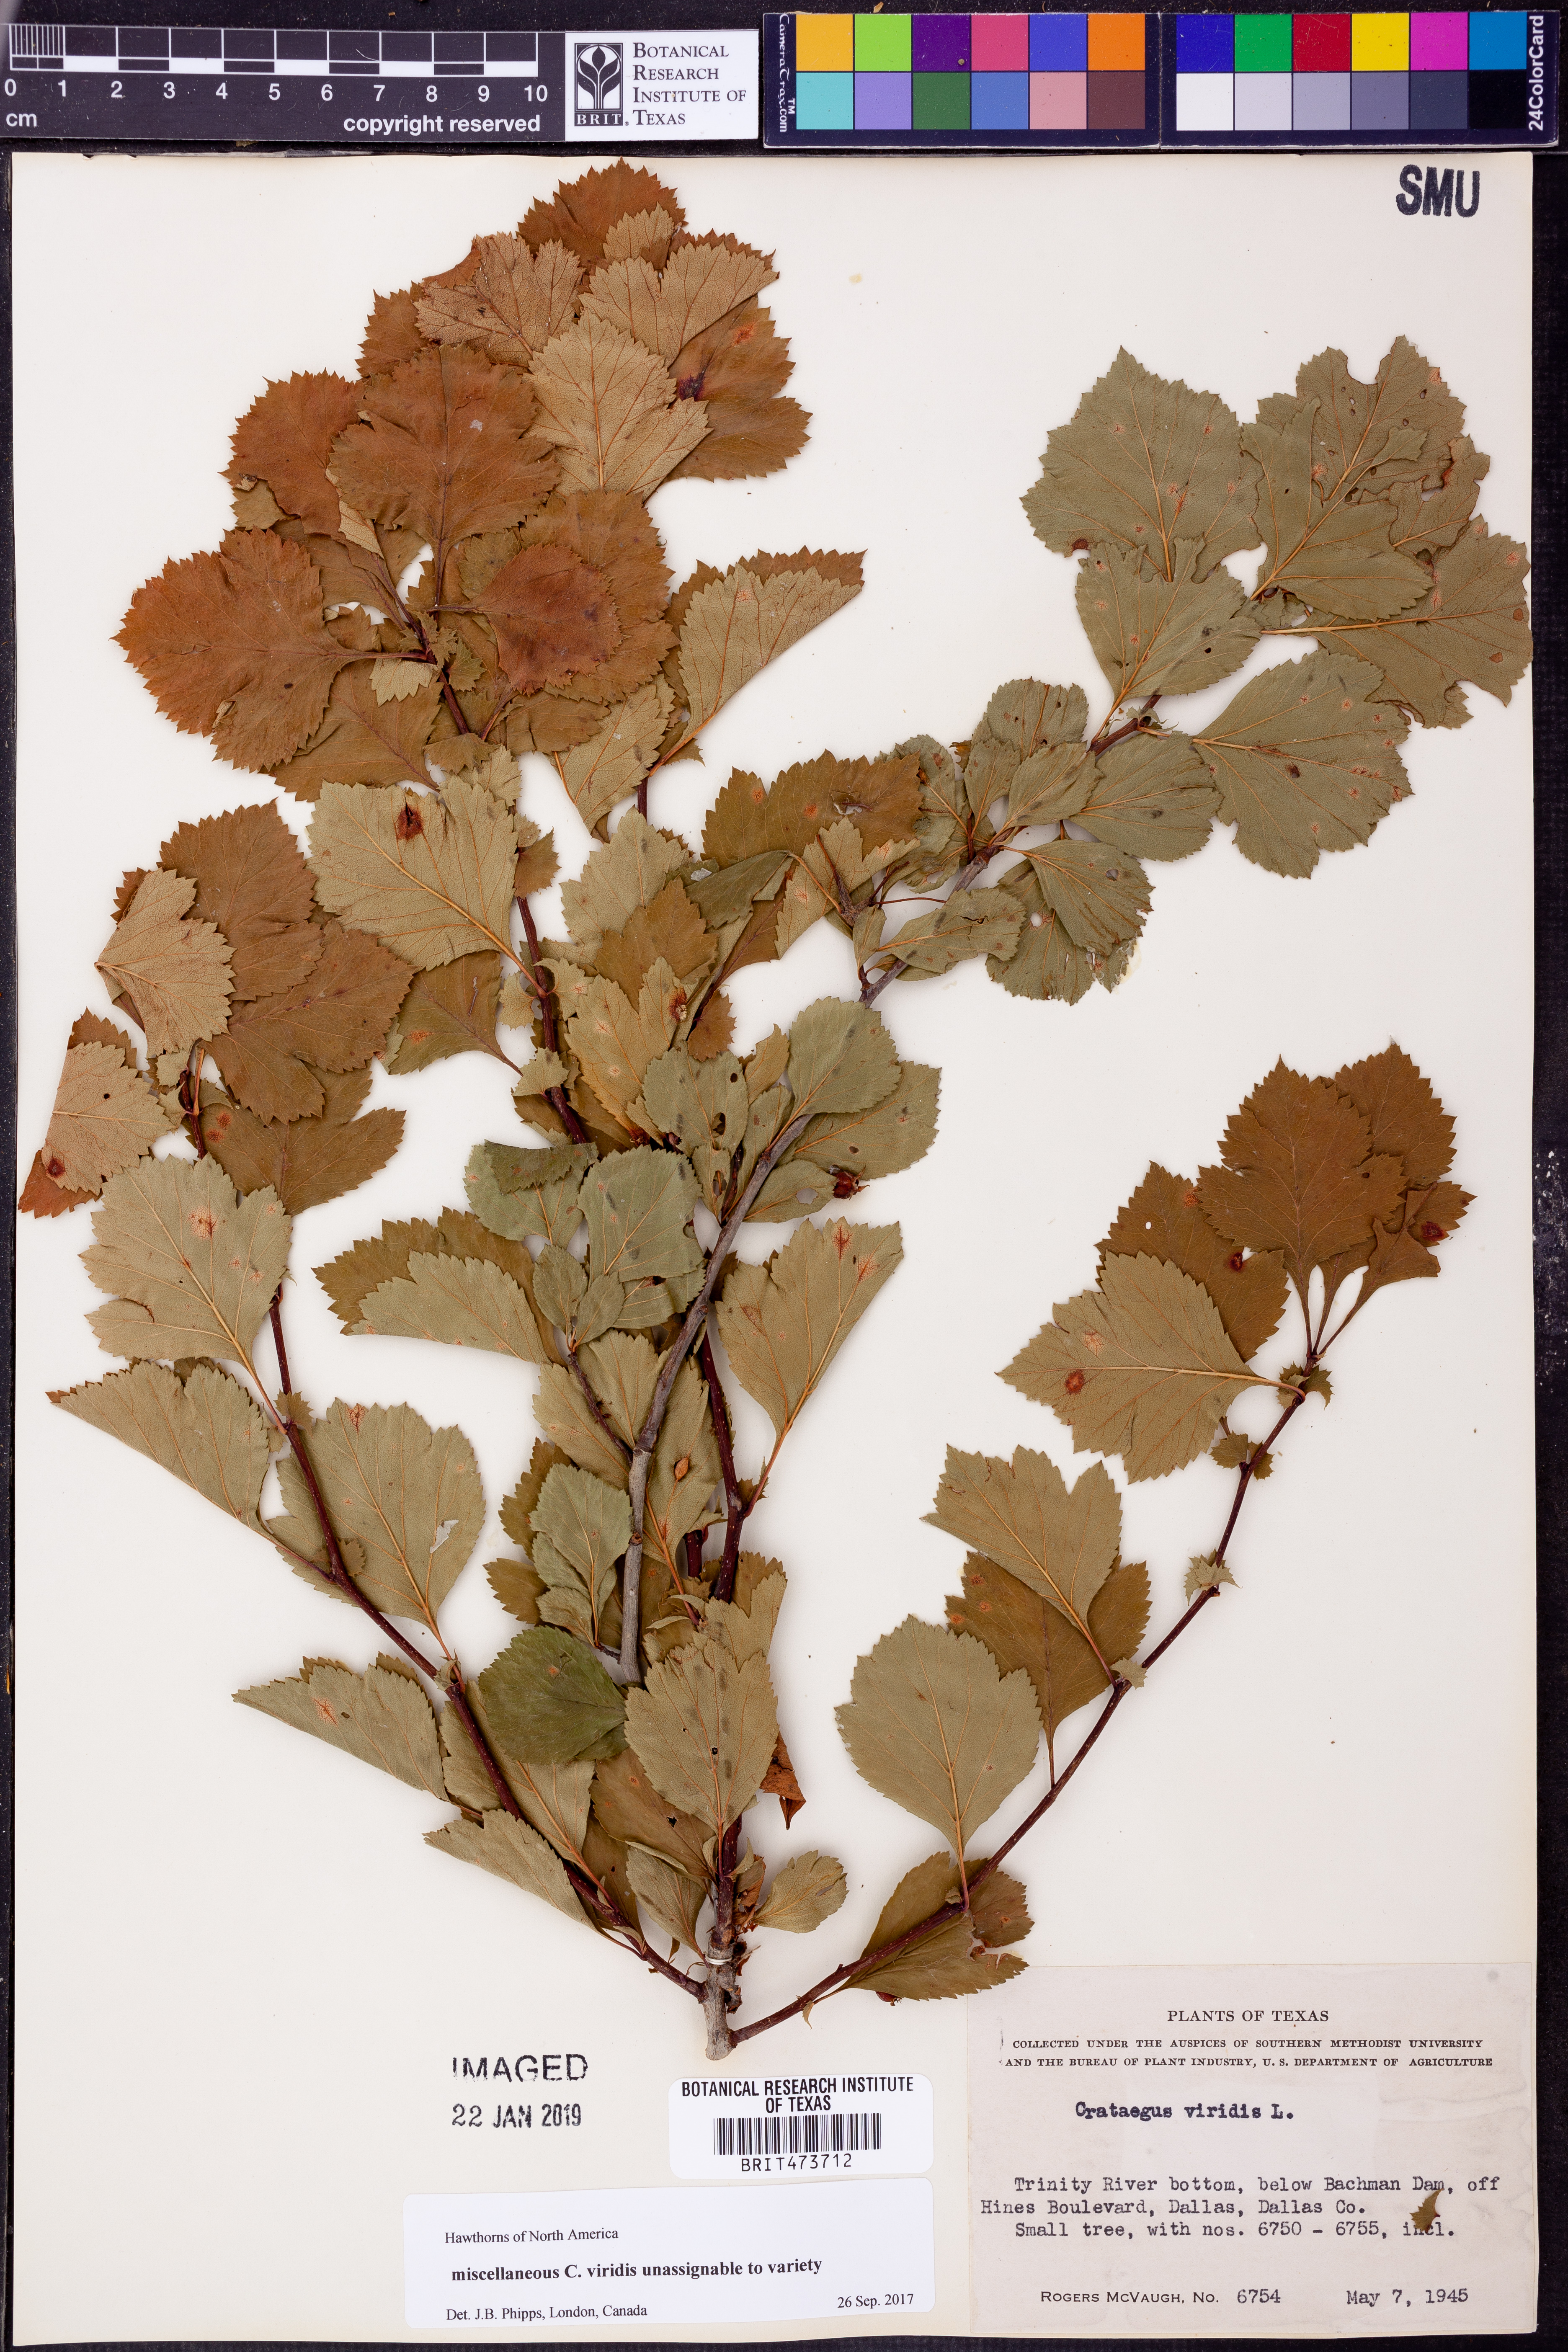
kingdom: Plantae
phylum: Tracheophyta
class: Magnoliopsida
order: Rosales
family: Rosaceae
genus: Crataegus
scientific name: Crataegus viridis
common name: Southernthorn
